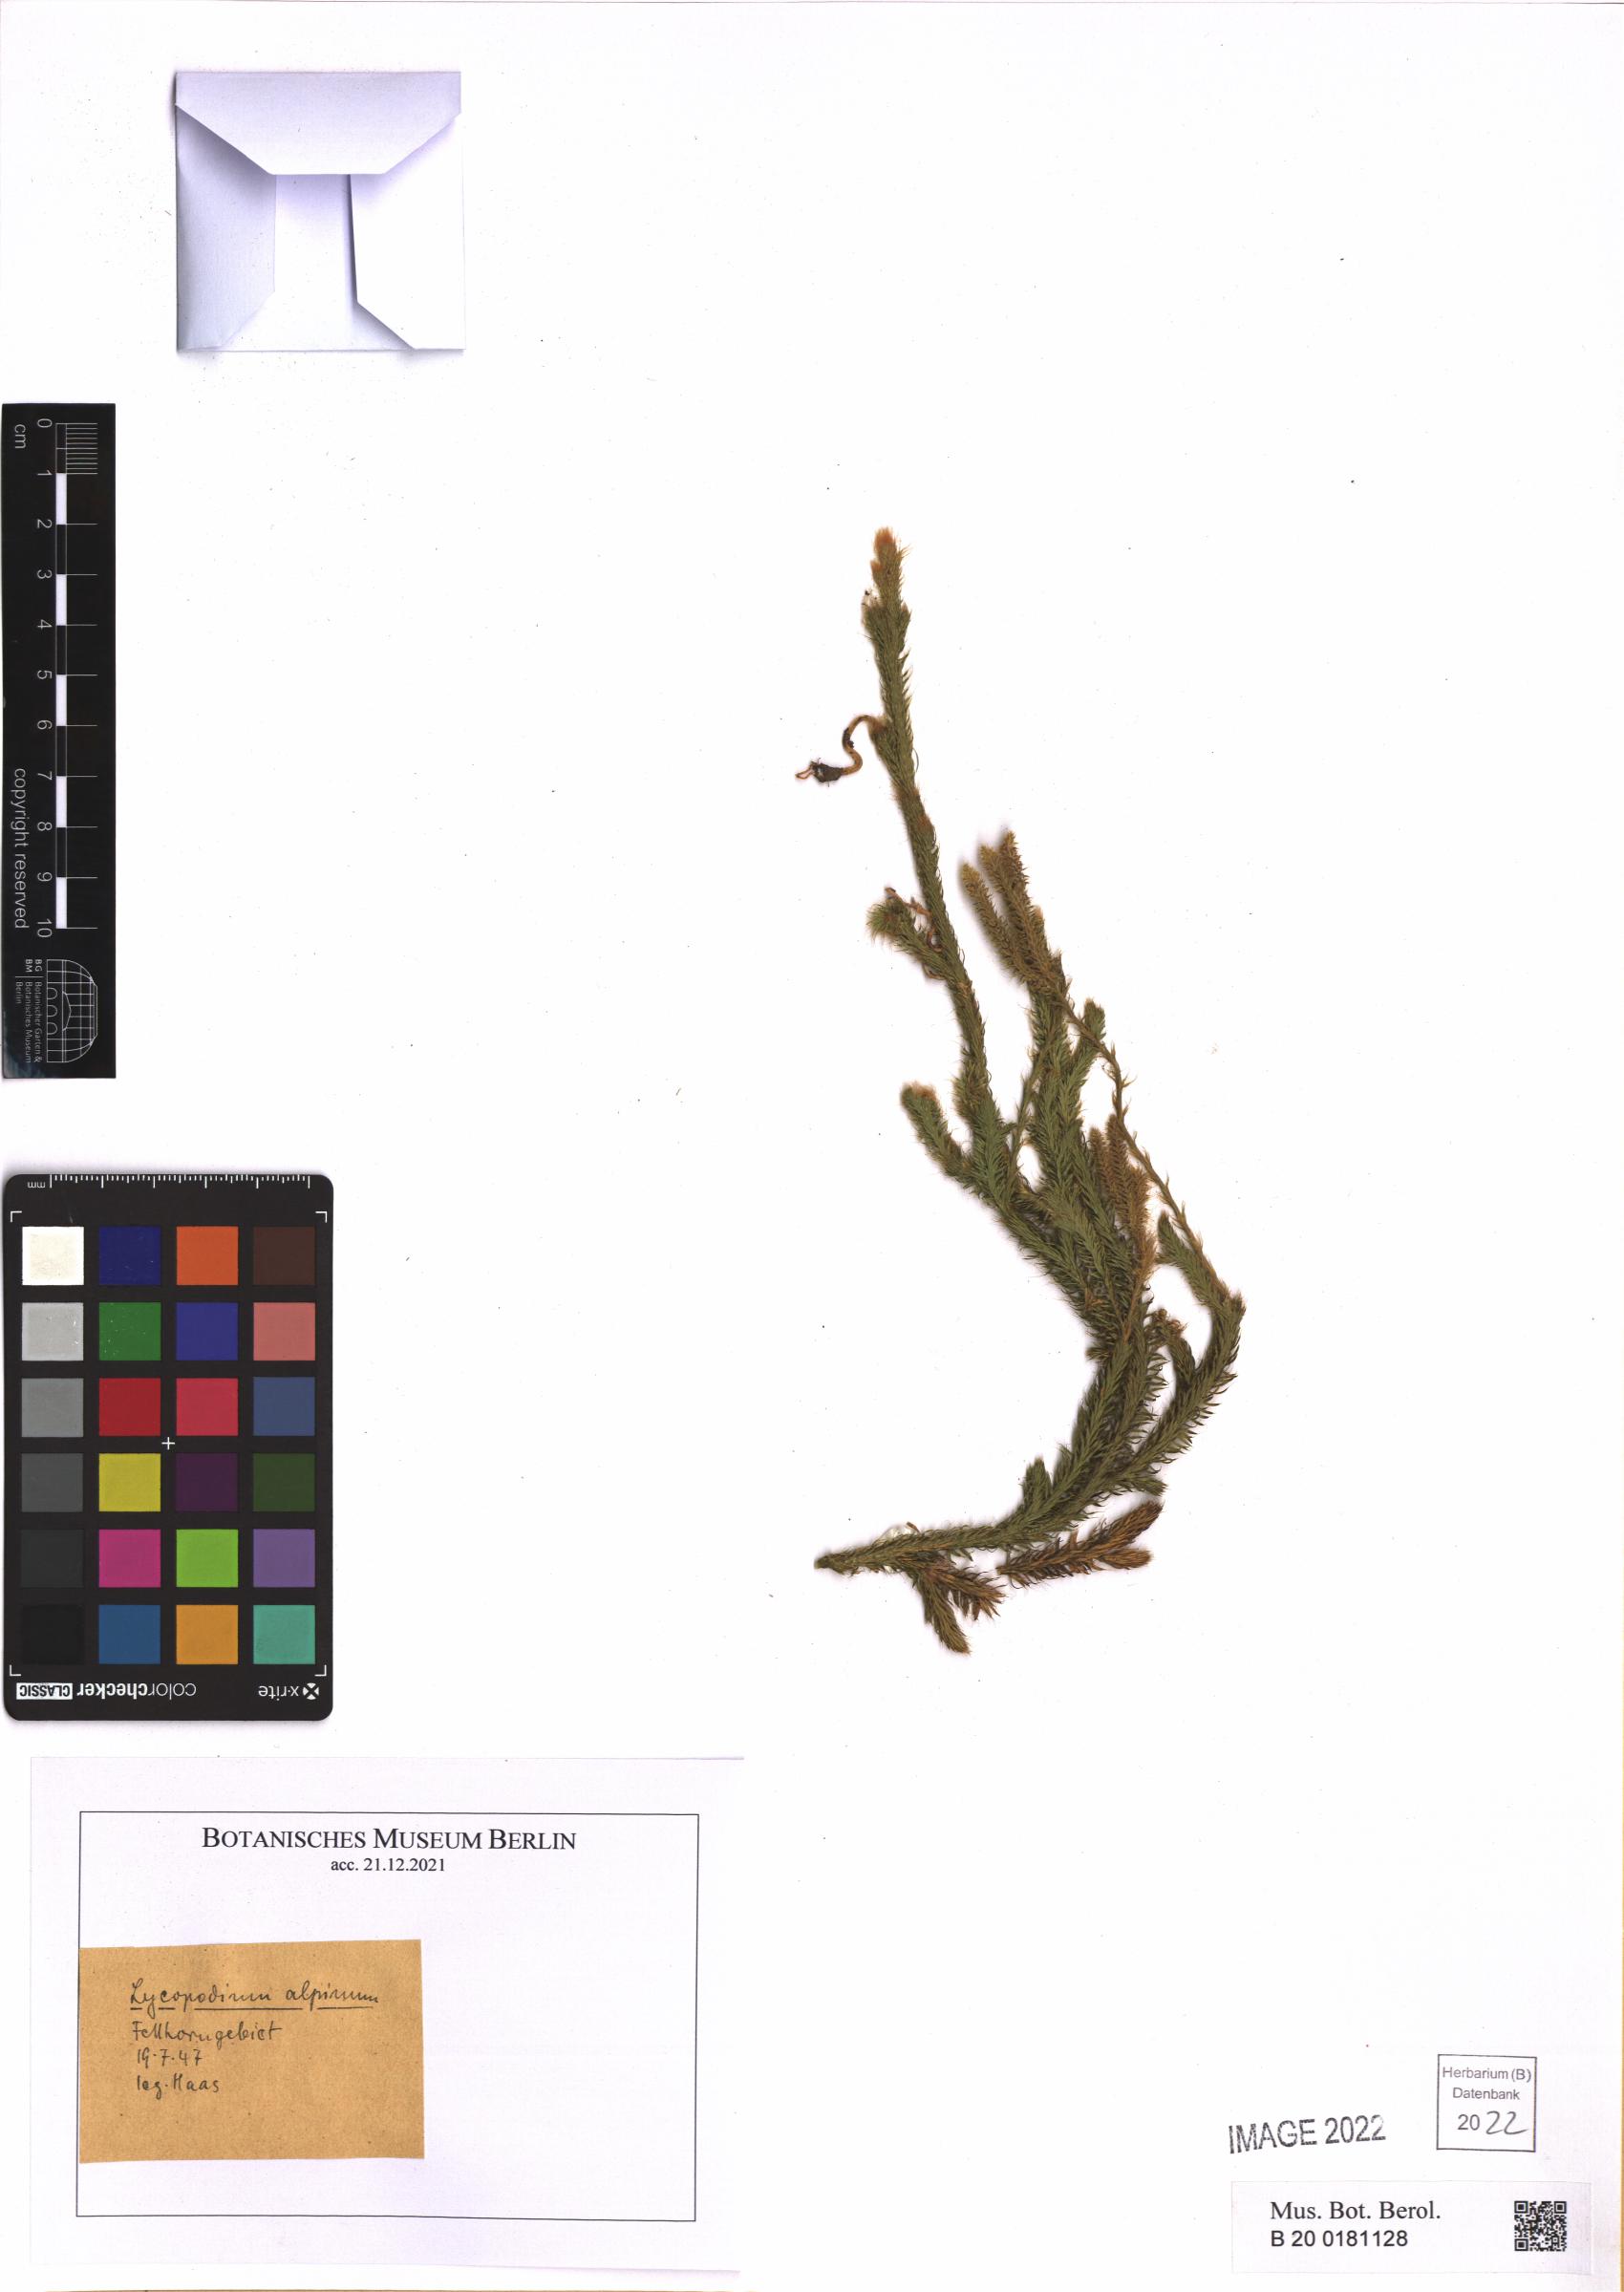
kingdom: Plantae
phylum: Tracheophyta
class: Lycopodiopsida
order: Lycopodiales
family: Lycopodiaceae
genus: Lycopodium
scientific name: Lycopodium clavatum
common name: Stag's-horn clubmoss
